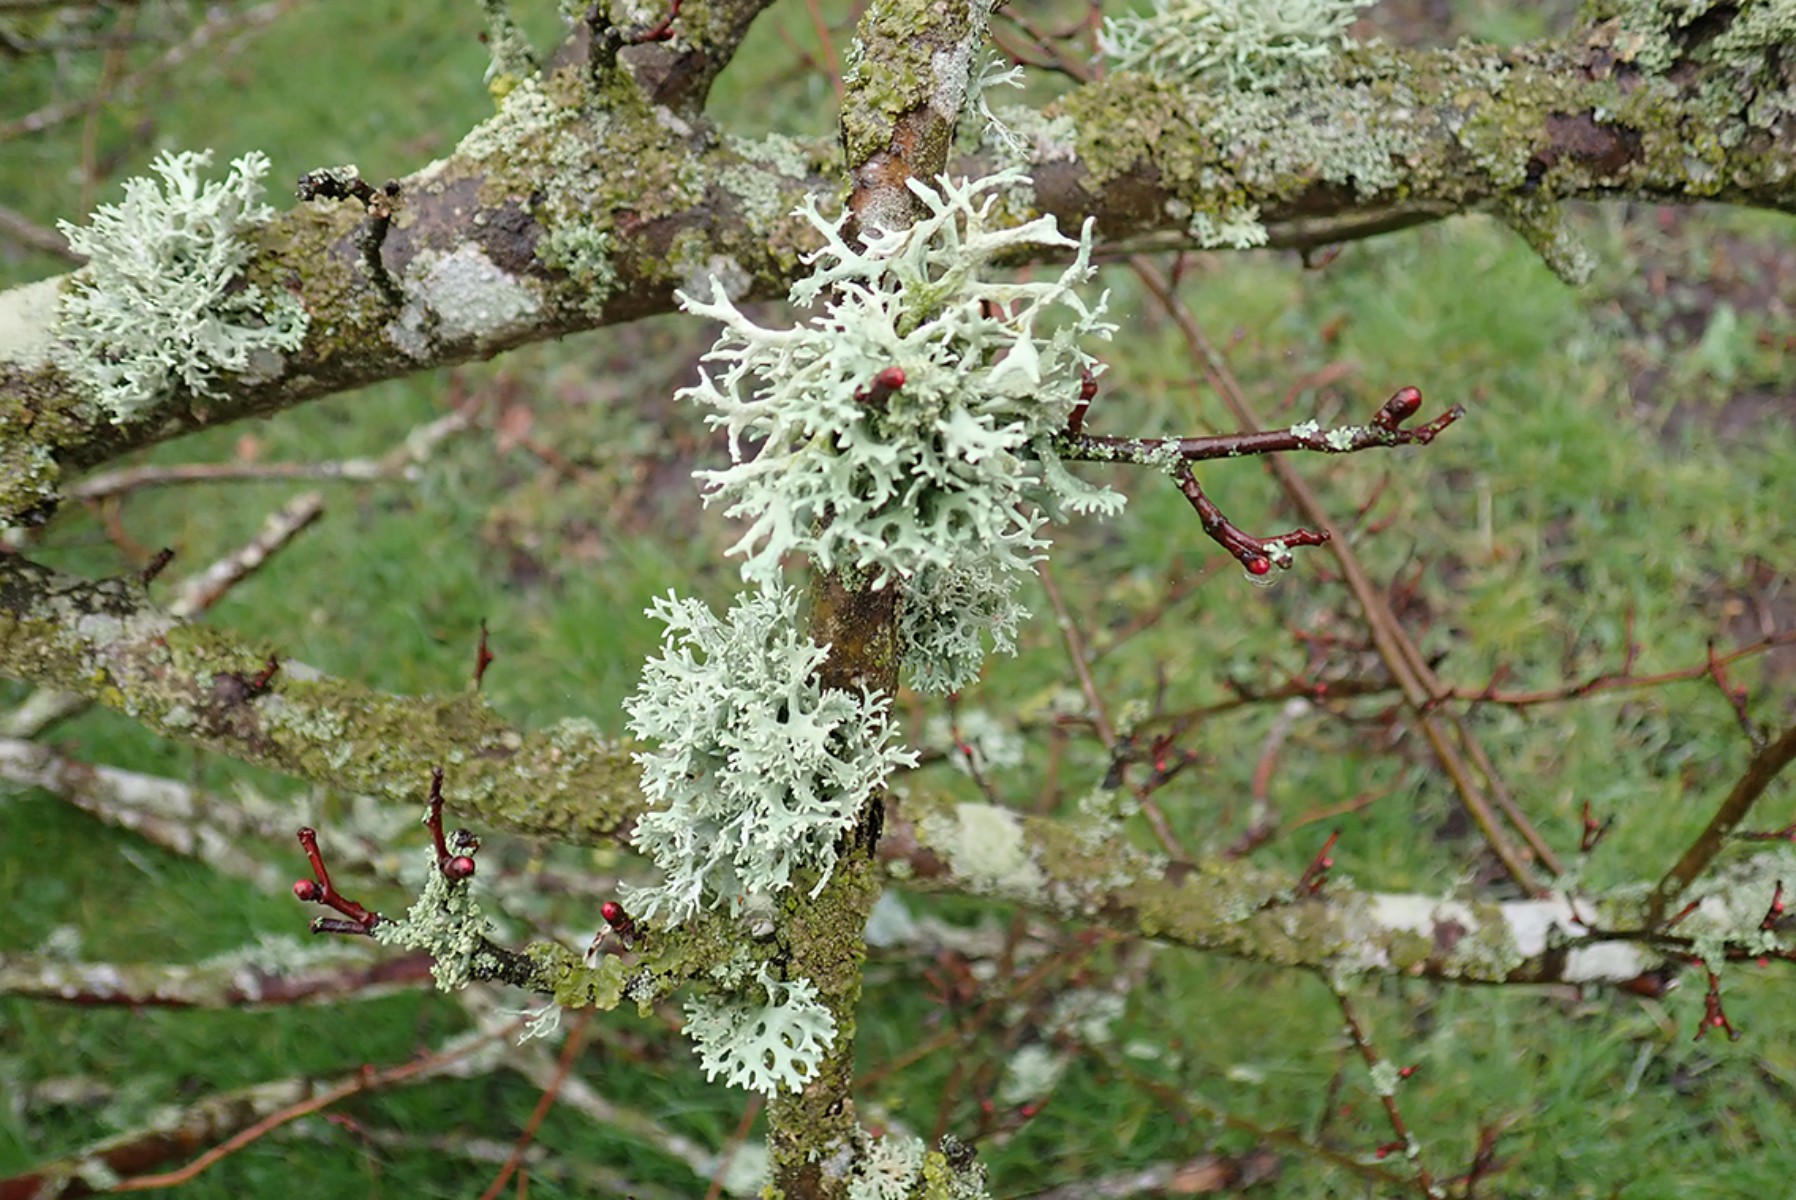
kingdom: Fungi
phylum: Ascomycota
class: Lecanoromycetes
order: Lecanorales
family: Parmeliaceae
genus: Evernia
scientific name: Evernia prunastri
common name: almindelig slåenlav
